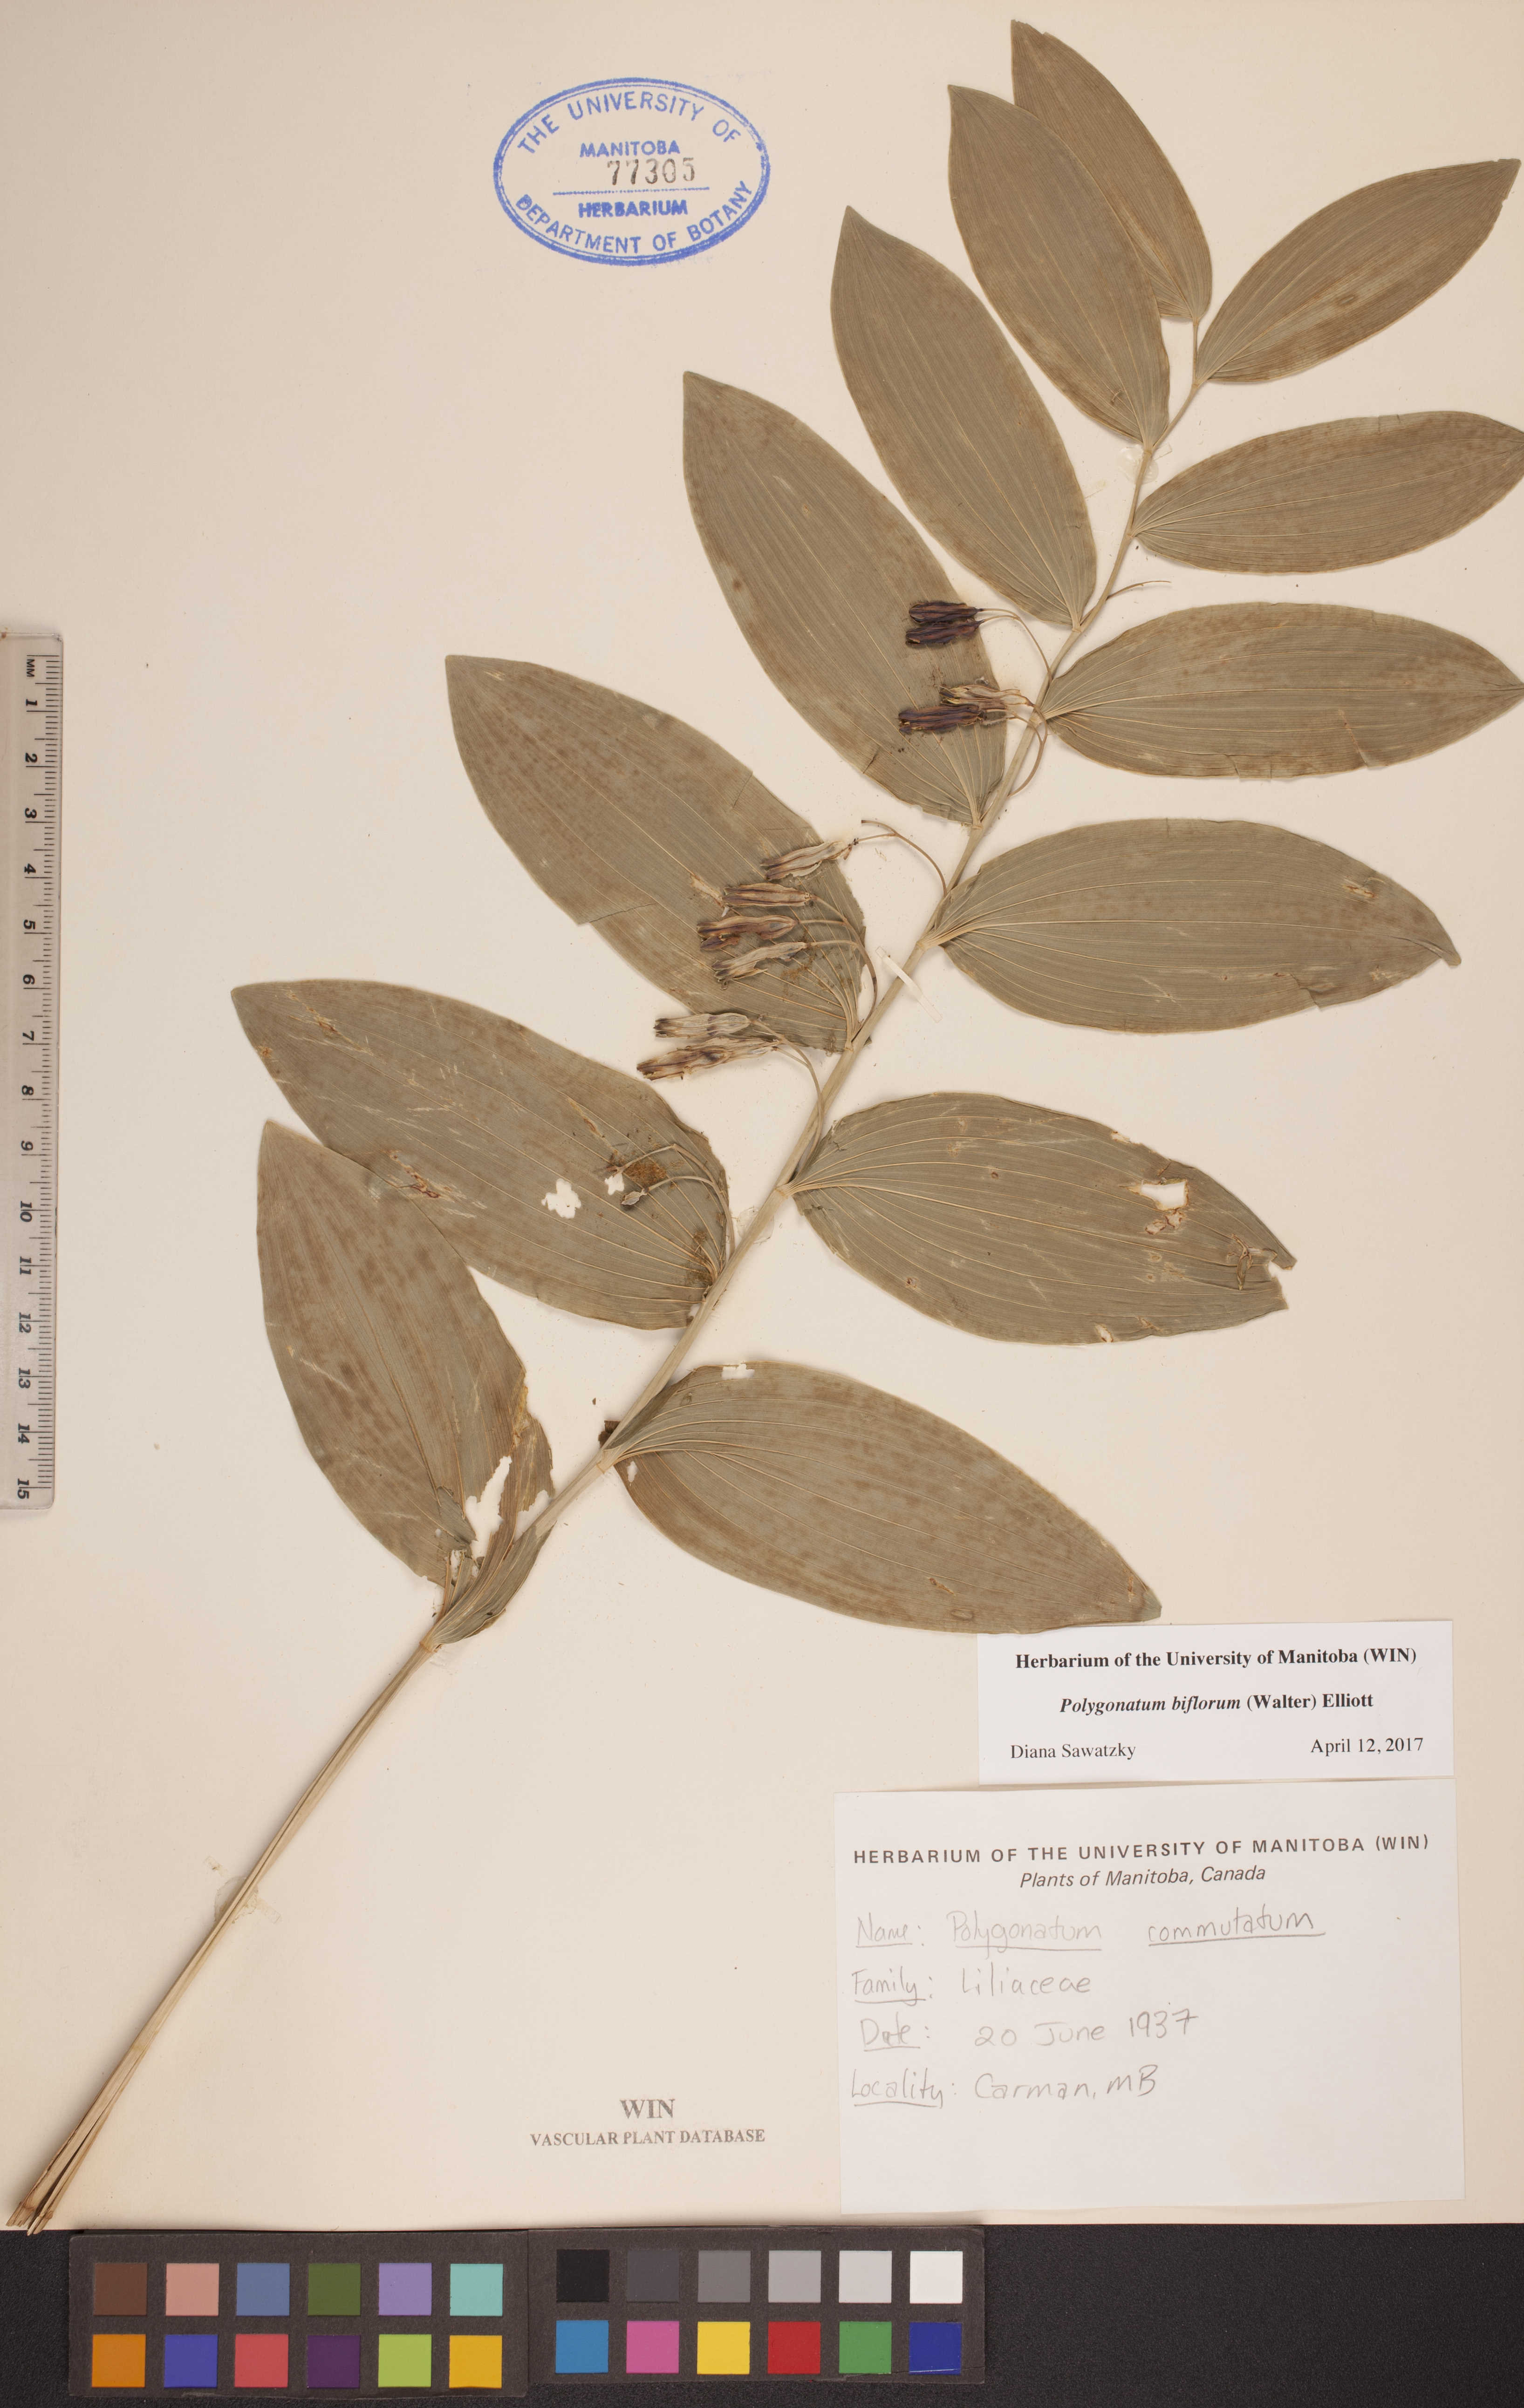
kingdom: Plantae
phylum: Tracheophyta
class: Liliopsida
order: Asparagales
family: Asparagaceae
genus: Polygonatum
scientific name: Polygonatum biflorum
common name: American solomon's-seal
